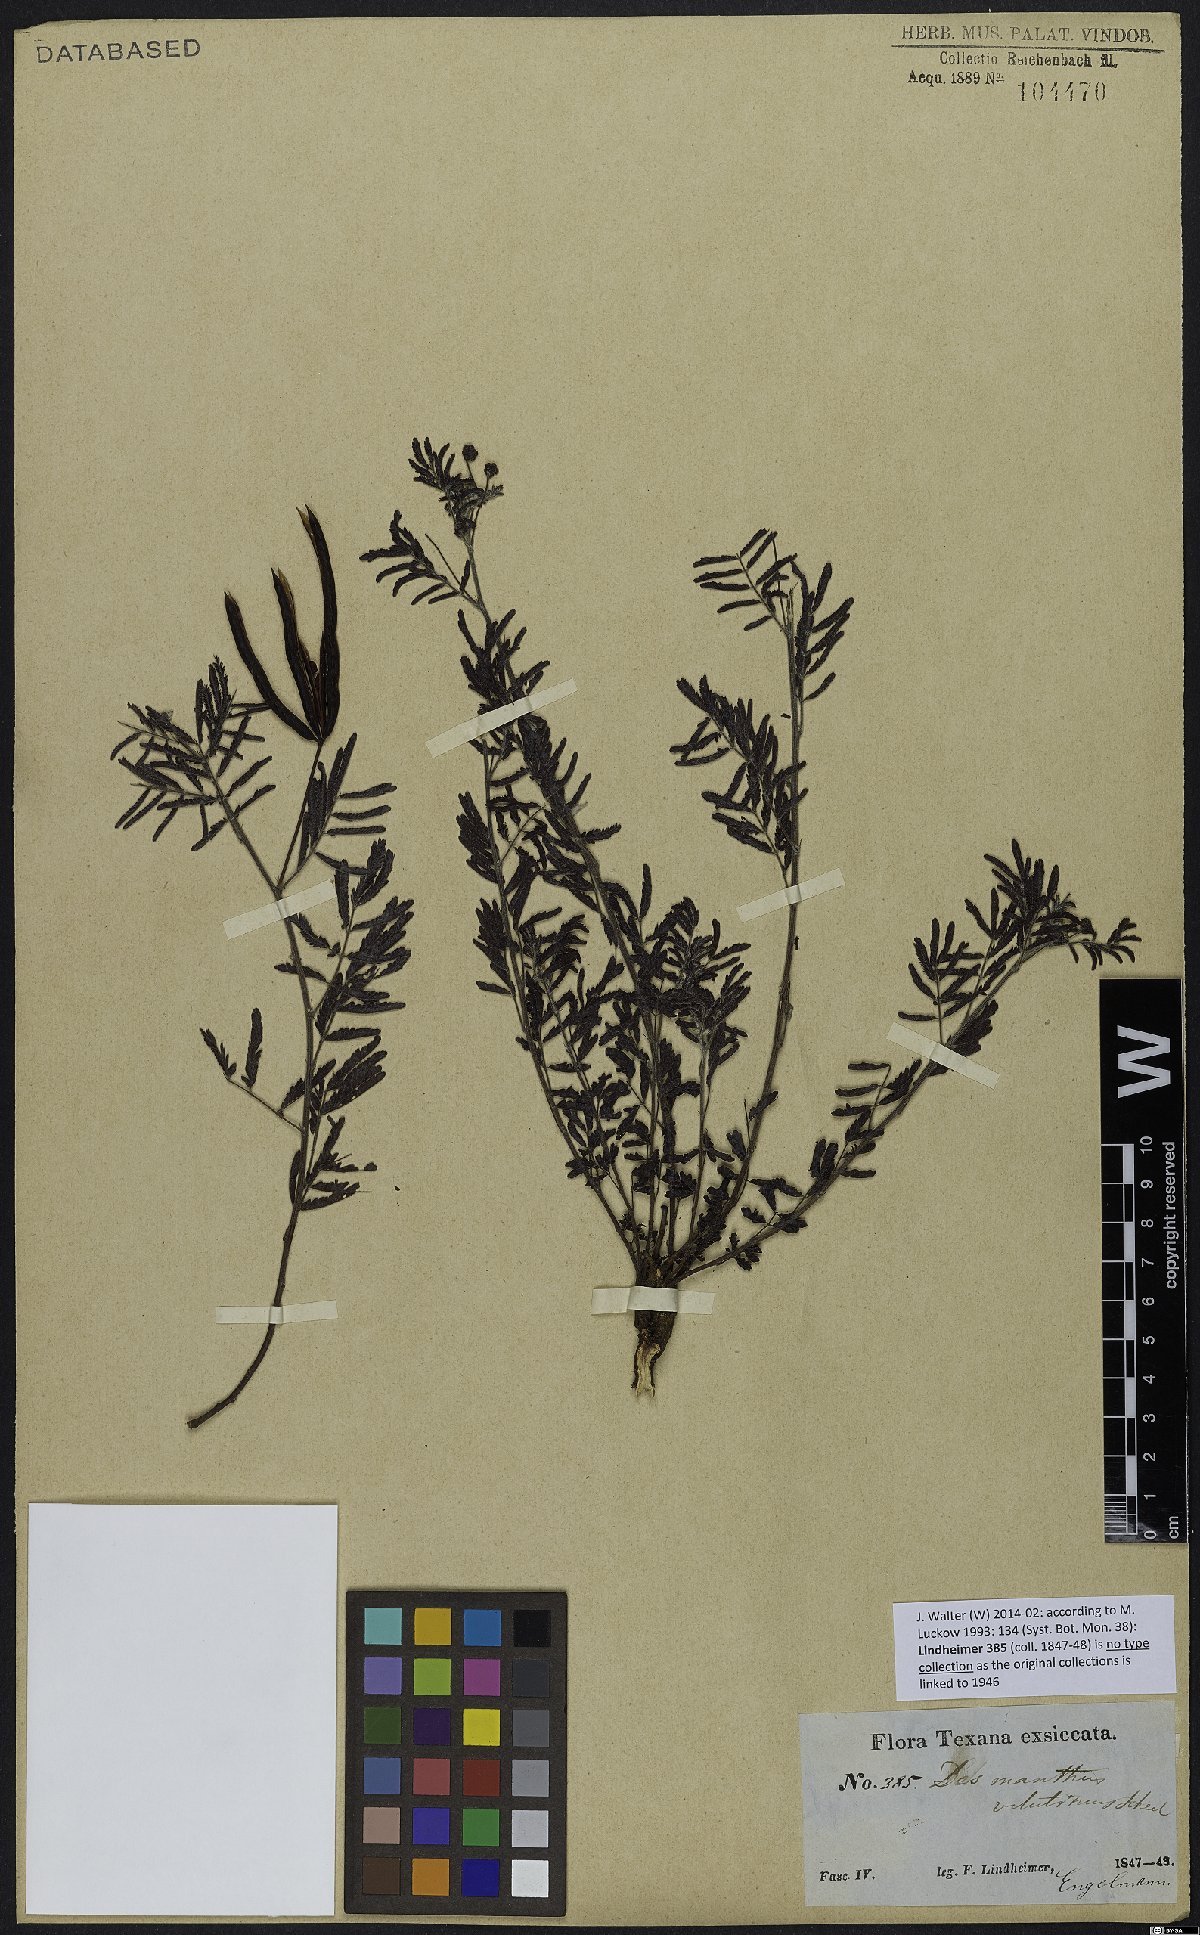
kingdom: Plantae
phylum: Tracheophyta
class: Magnoliopsida
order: Fabales
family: Fabaceae
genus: Desmanthus
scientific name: Desmanthus velutinus
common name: Velvet bundle-flower
